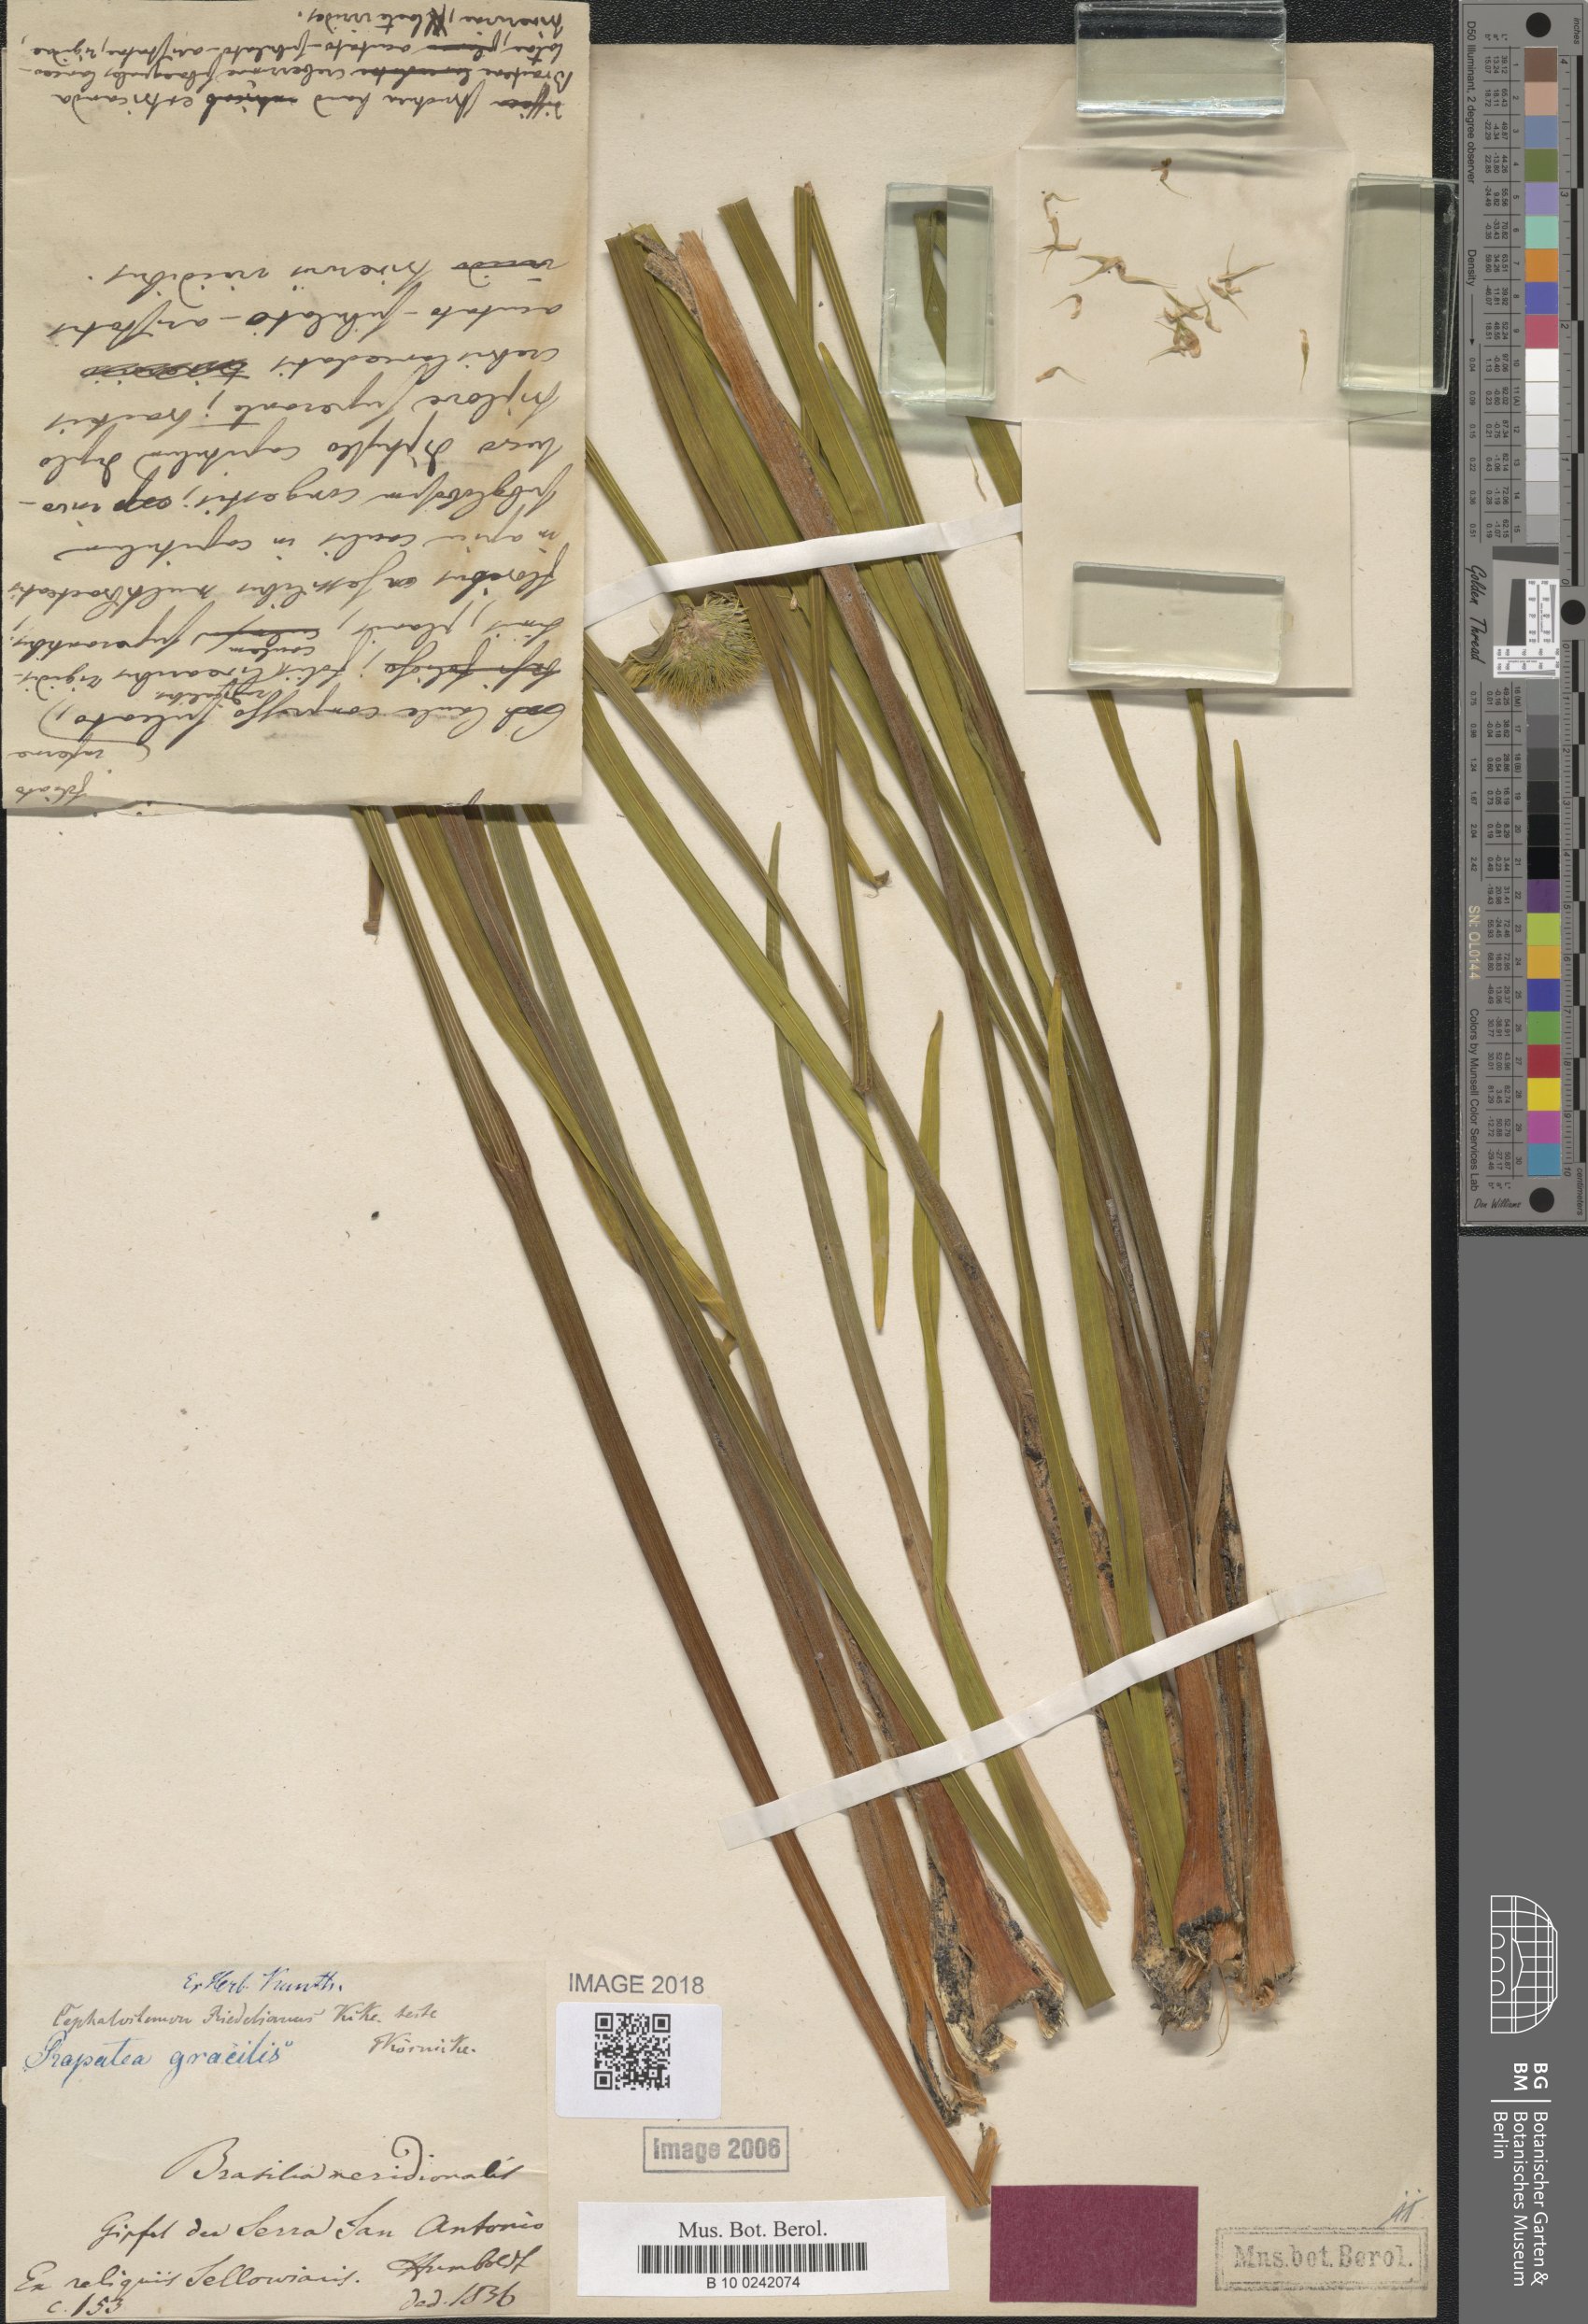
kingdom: Plantae
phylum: Tracheophyta
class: Liliopsida
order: Poales
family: Rapateaceae
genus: Cephalostemon
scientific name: Cephalostemon riedelianus
